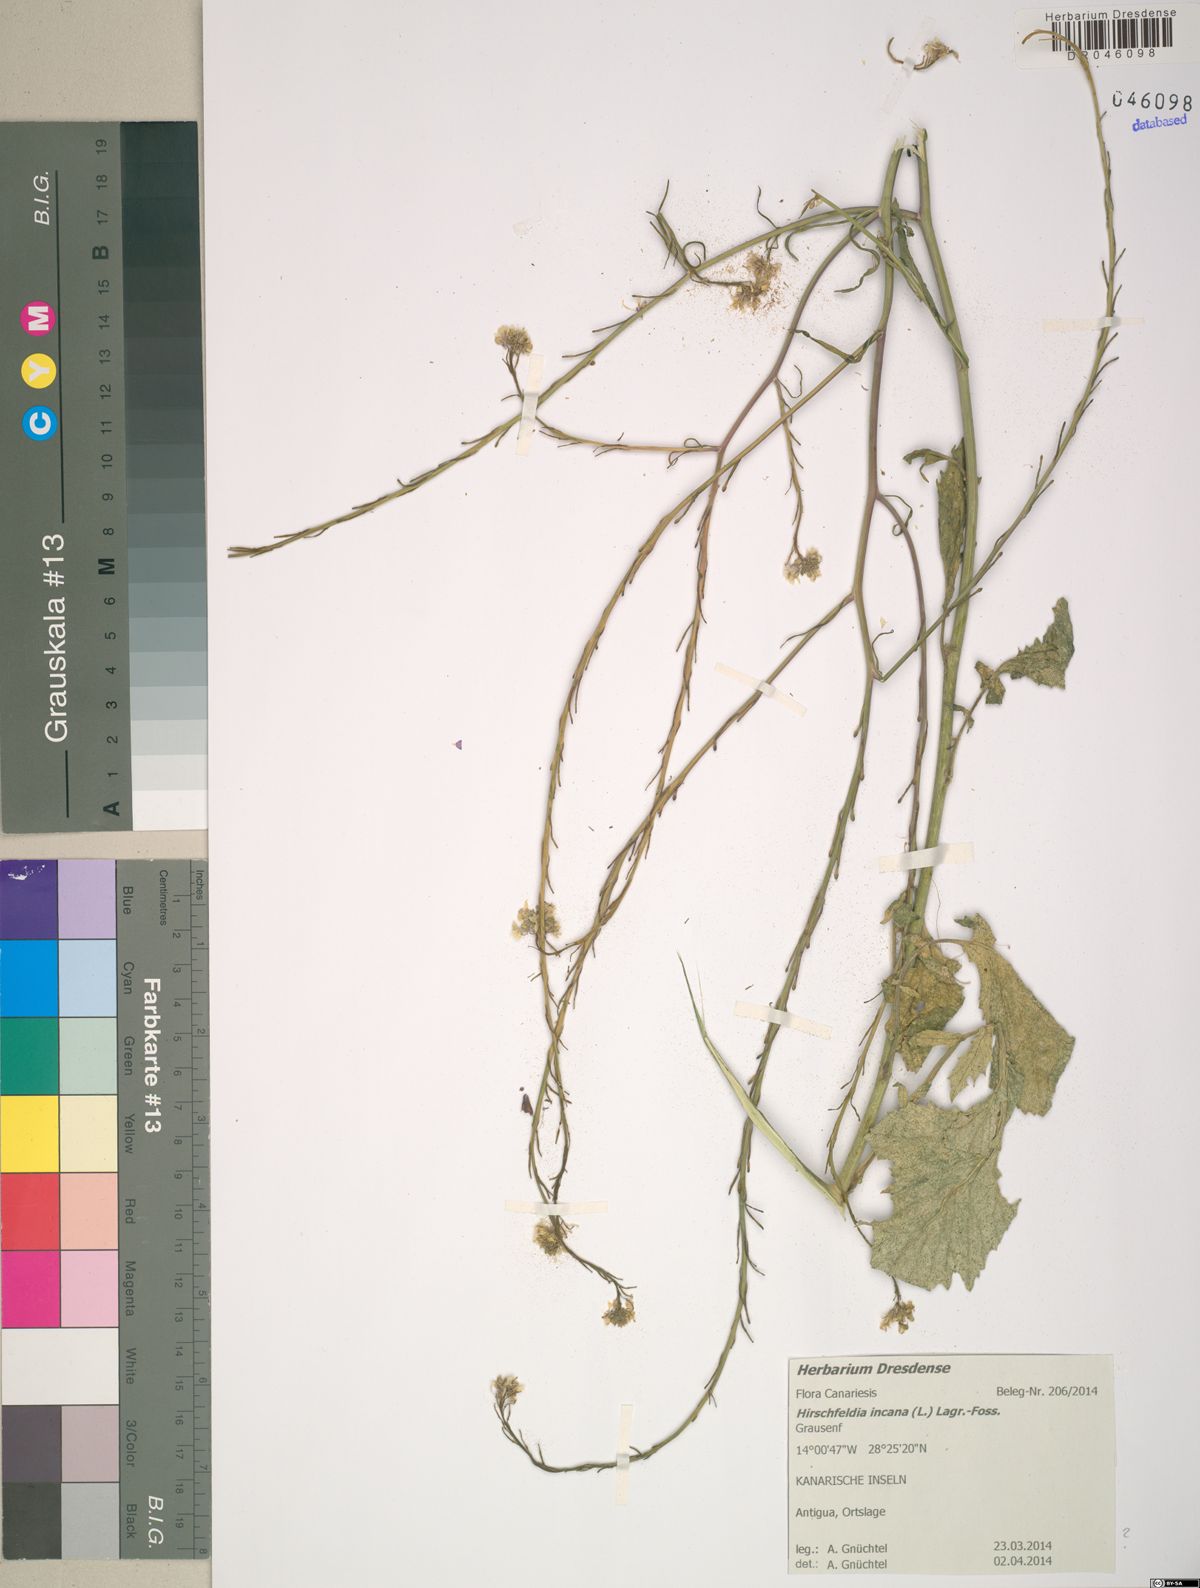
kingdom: Plantae
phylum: Tracheophyta
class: Magnoliopsida
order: Brassicales
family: Brassicaceae
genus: Hirschfeldia
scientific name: Hirschfeldia incana
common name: Hoary mustard
